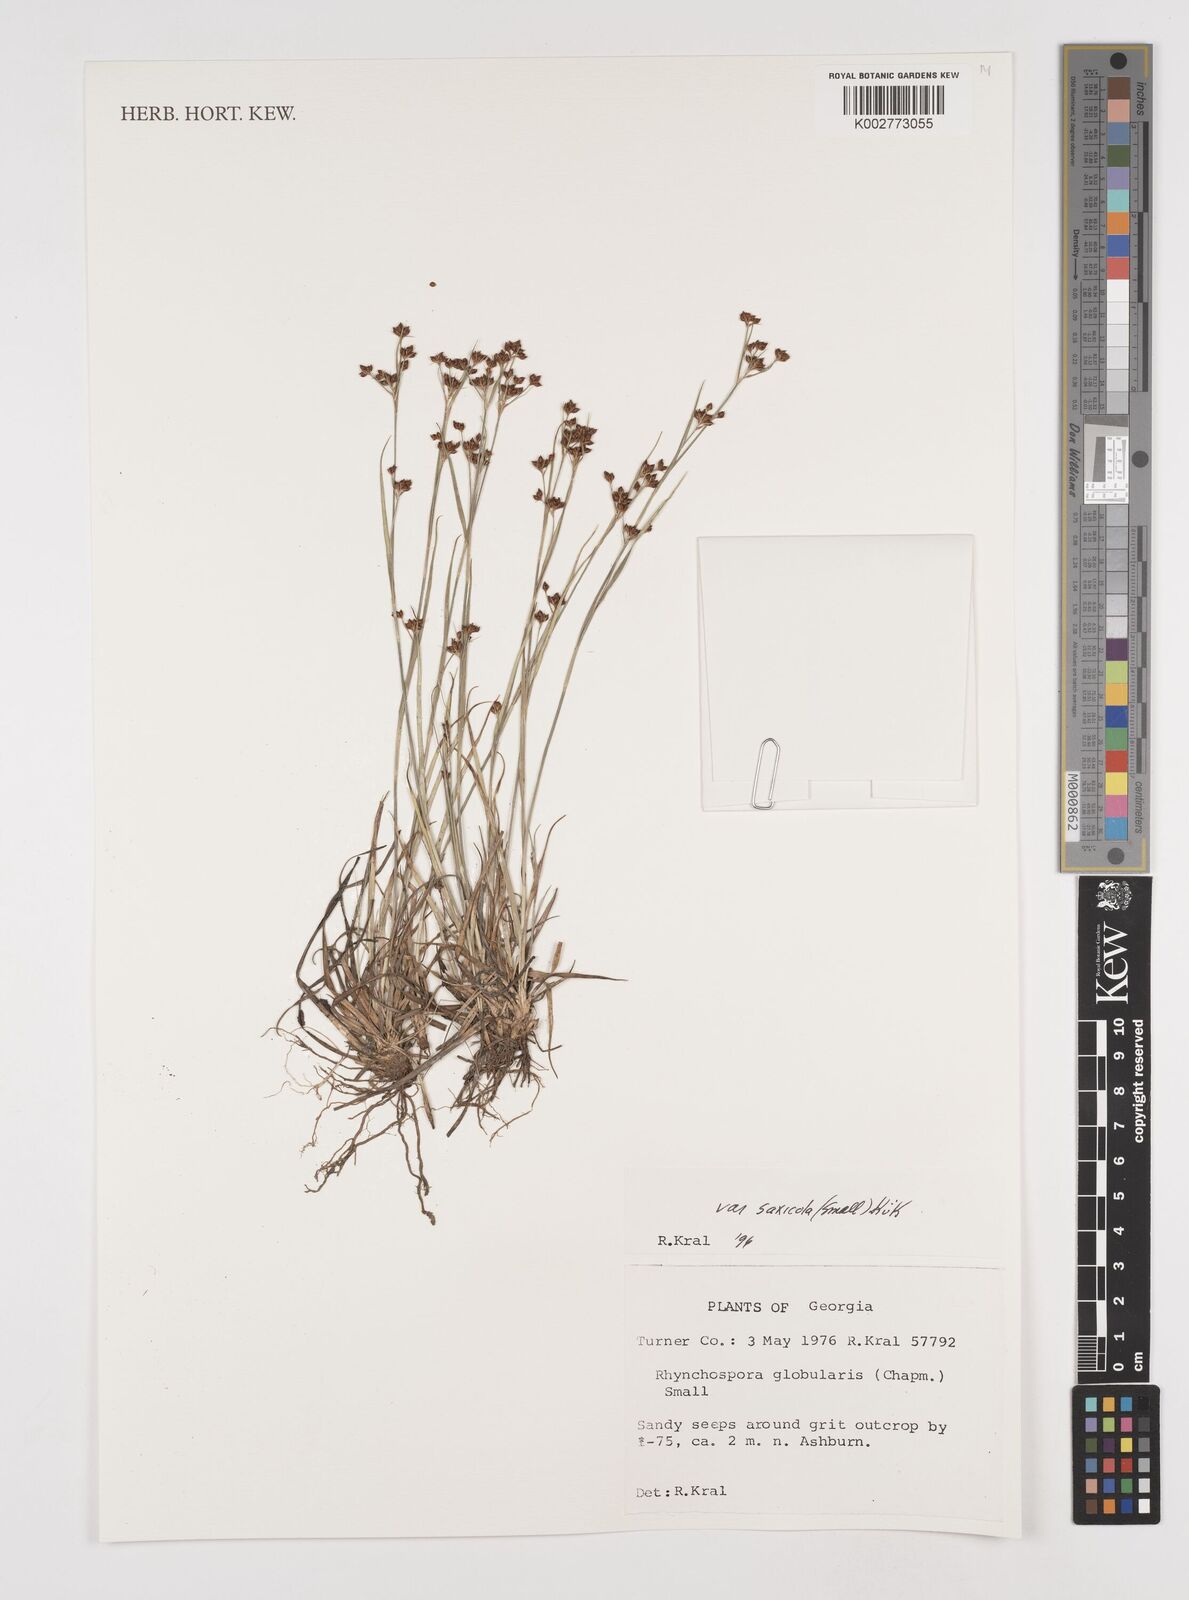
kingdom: Plantae
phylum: Tracheophyta
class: Liliopsida
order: Poales
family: Cyperaceae
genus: Rhynchospora
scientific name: Rhynchospora globularis
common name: Globe beaksedge
